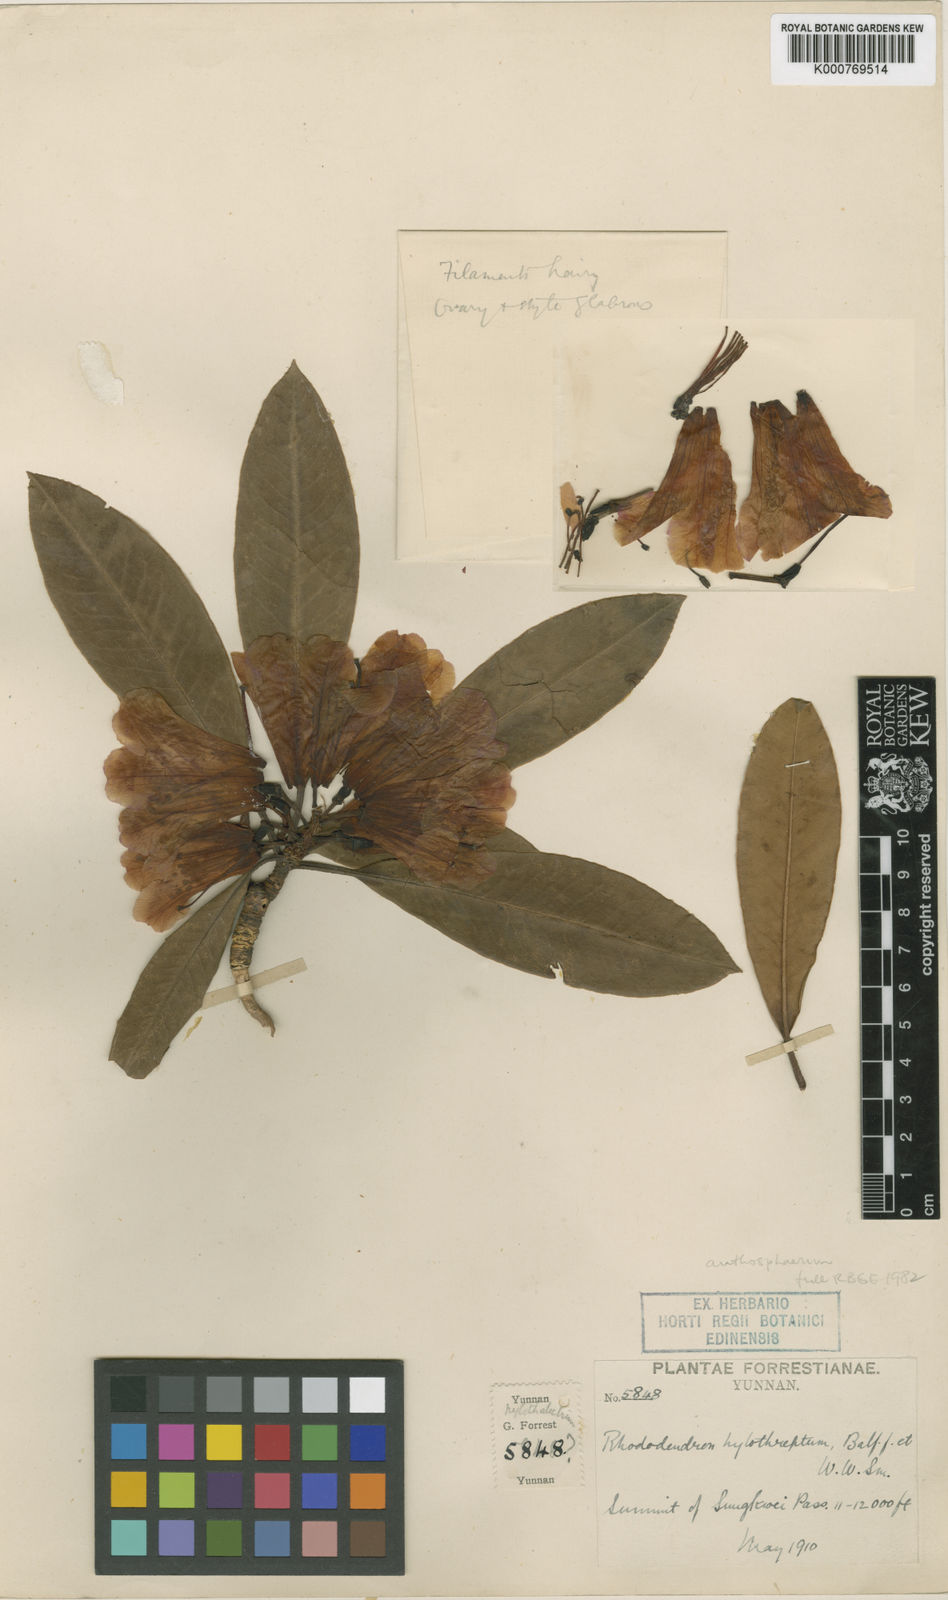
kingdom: Plantae
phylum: Tracheophyta
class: Magnoliopsida
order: Ericales
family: Ericaceae
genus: Rhododendron
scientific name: Rhododendron anthosphaerum
